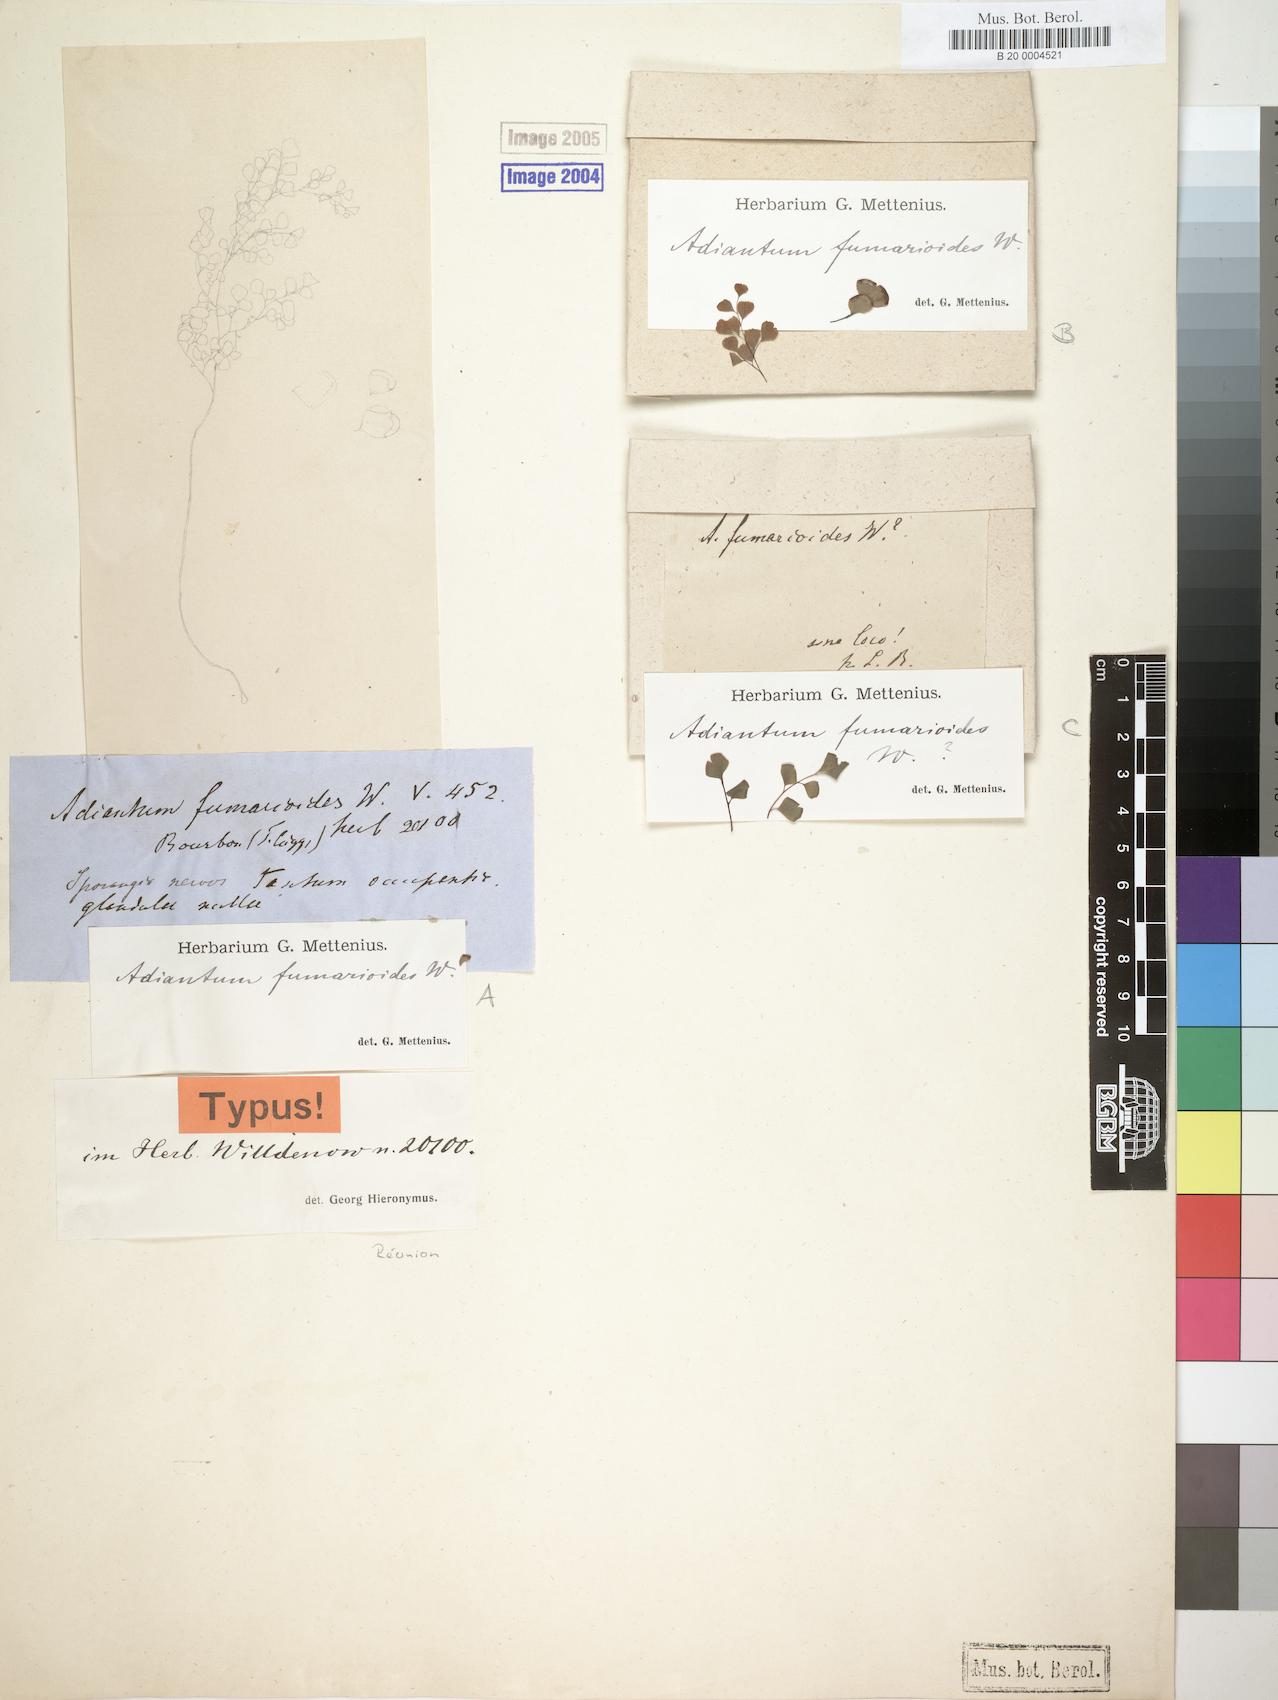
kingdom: Plantae
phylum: Tracheophyta
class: Polypodiopsida
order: Polypodiales
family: Pteridaceae
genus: Adiantum
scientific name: Adiantum capillus-veneris
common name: Maidenhair fern
